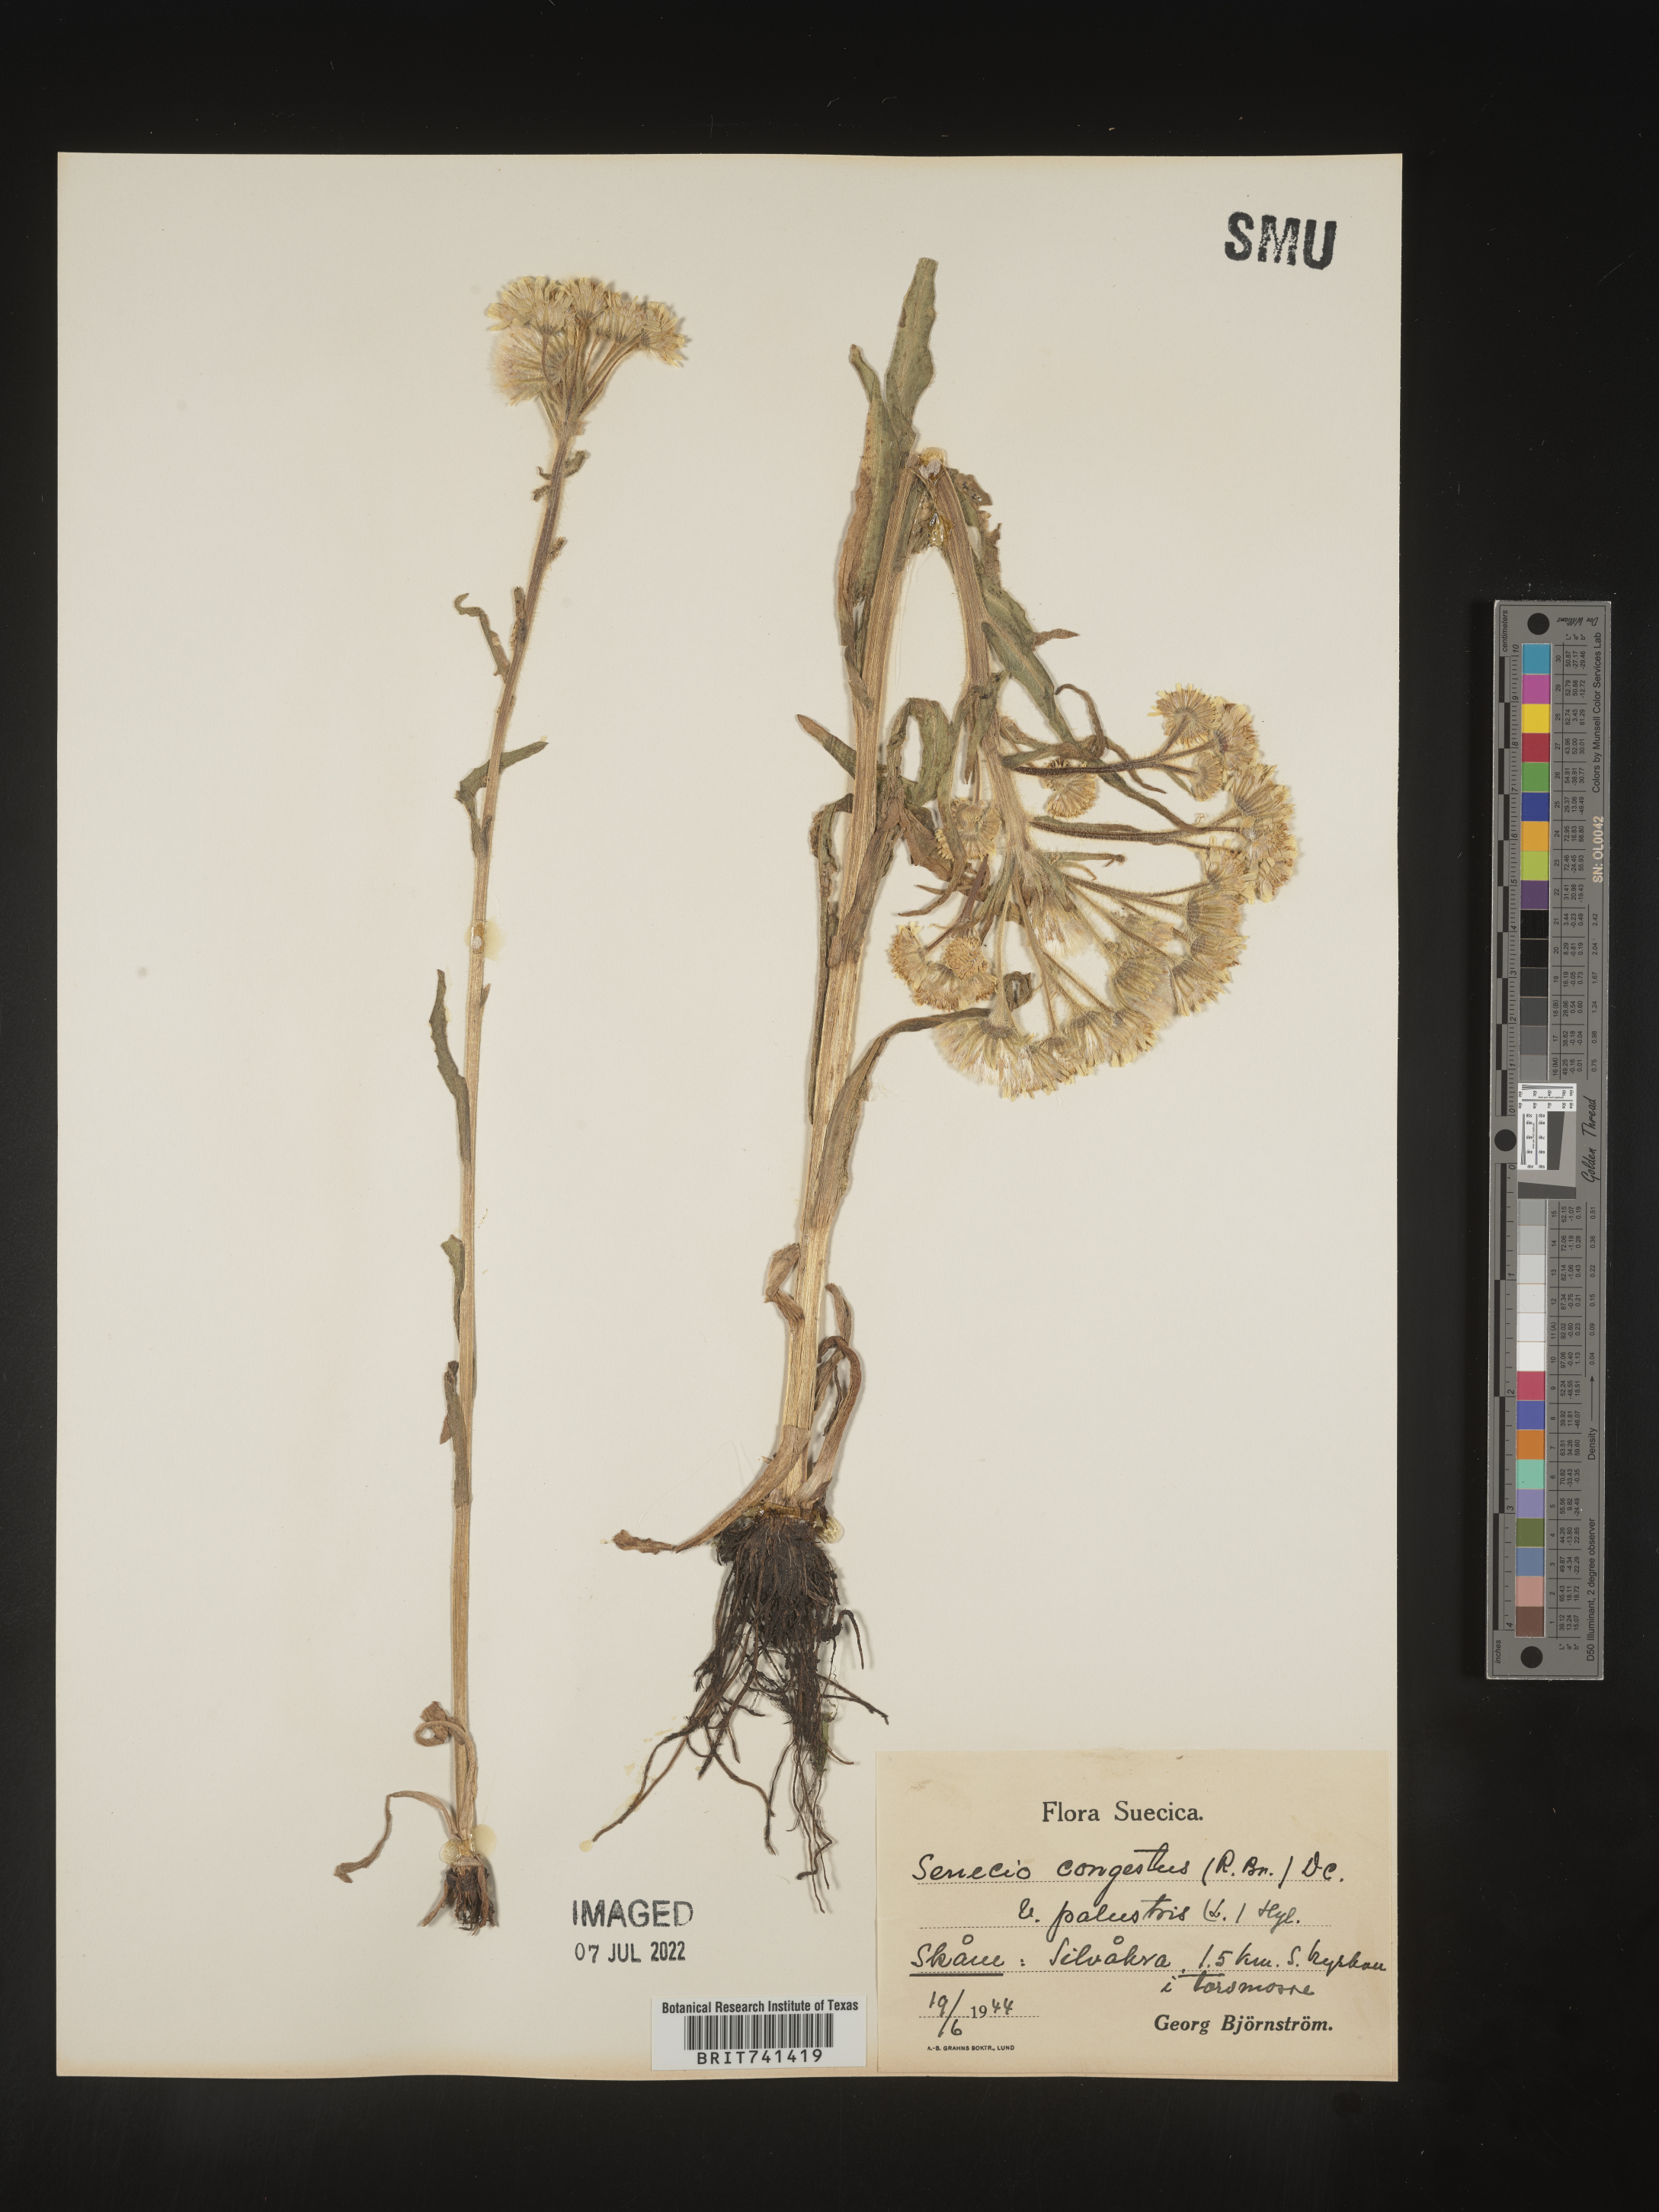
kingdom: Plantae
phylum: Tracheophyta
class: Magnoliopsida
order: Asterales
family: Asteraceae
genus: Senecio
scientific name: Senecio
